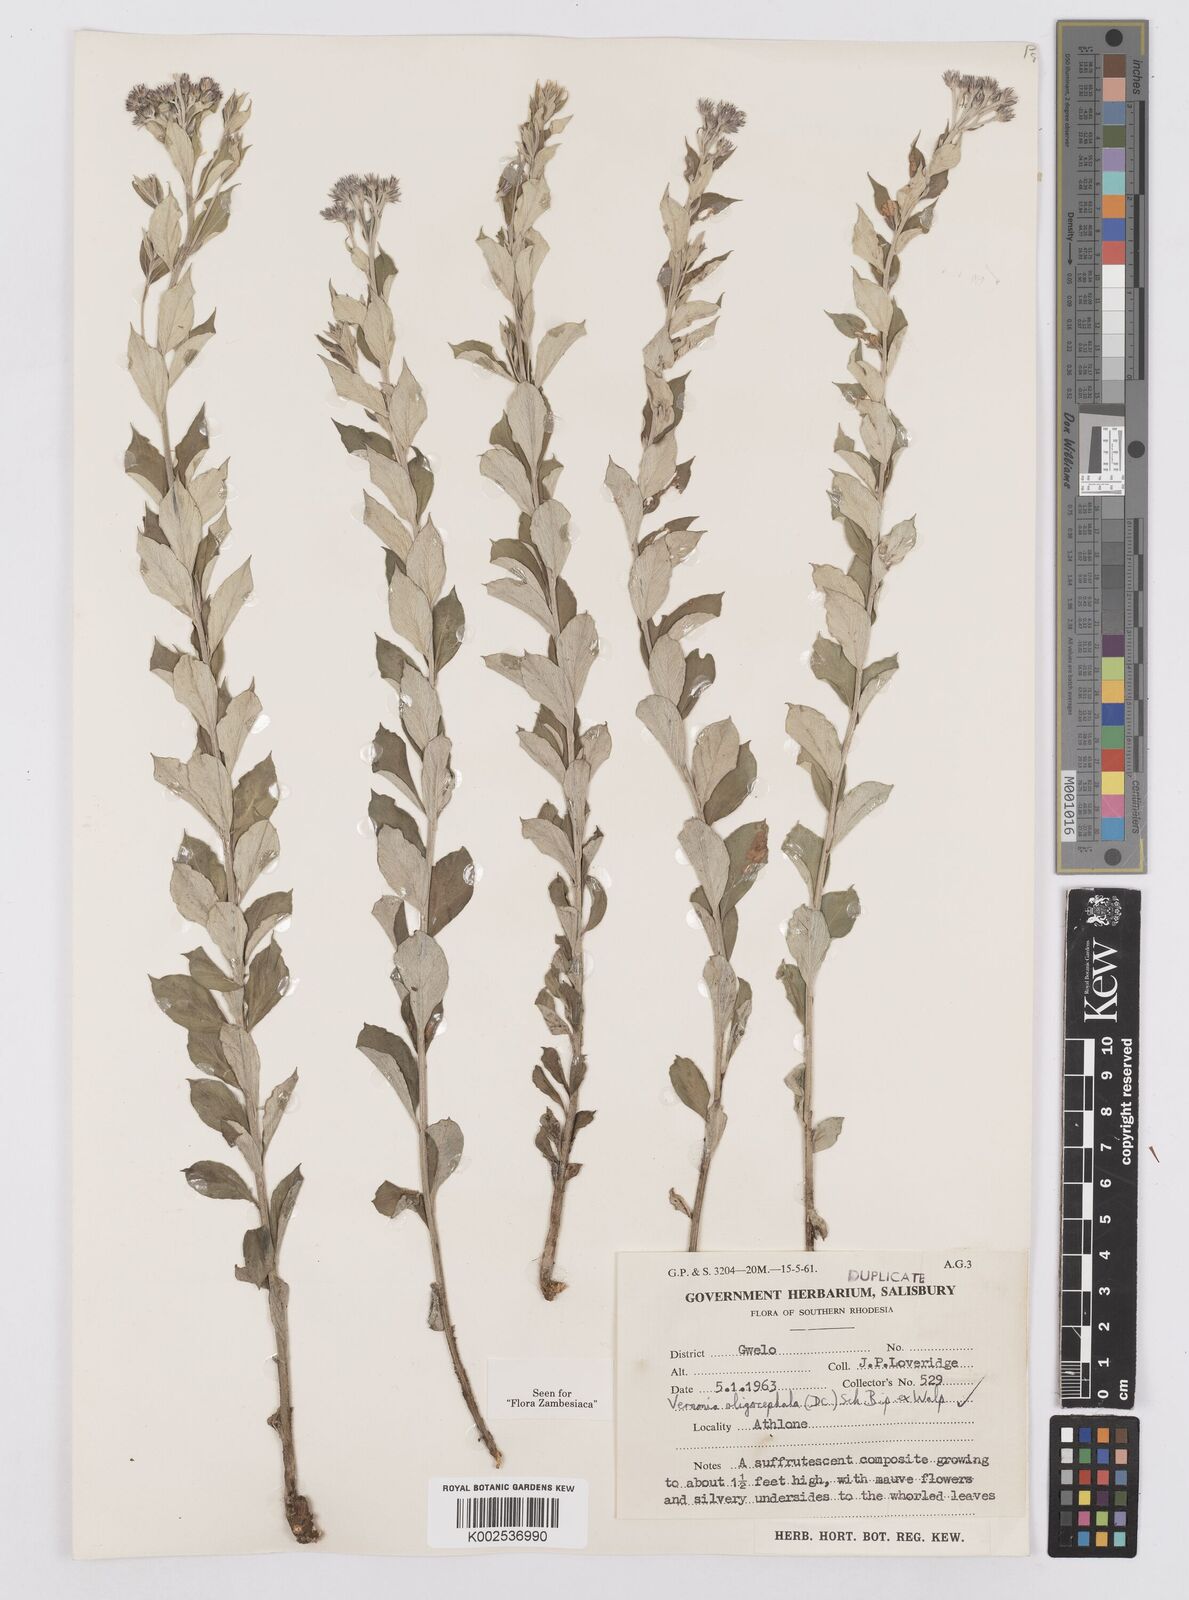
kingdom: Plantae
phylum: Tracheophyta
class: Magnoliopsida
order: Asterales
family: Asteraceae
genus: Hilliardiella
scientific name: Hilliardiella oligocephala
